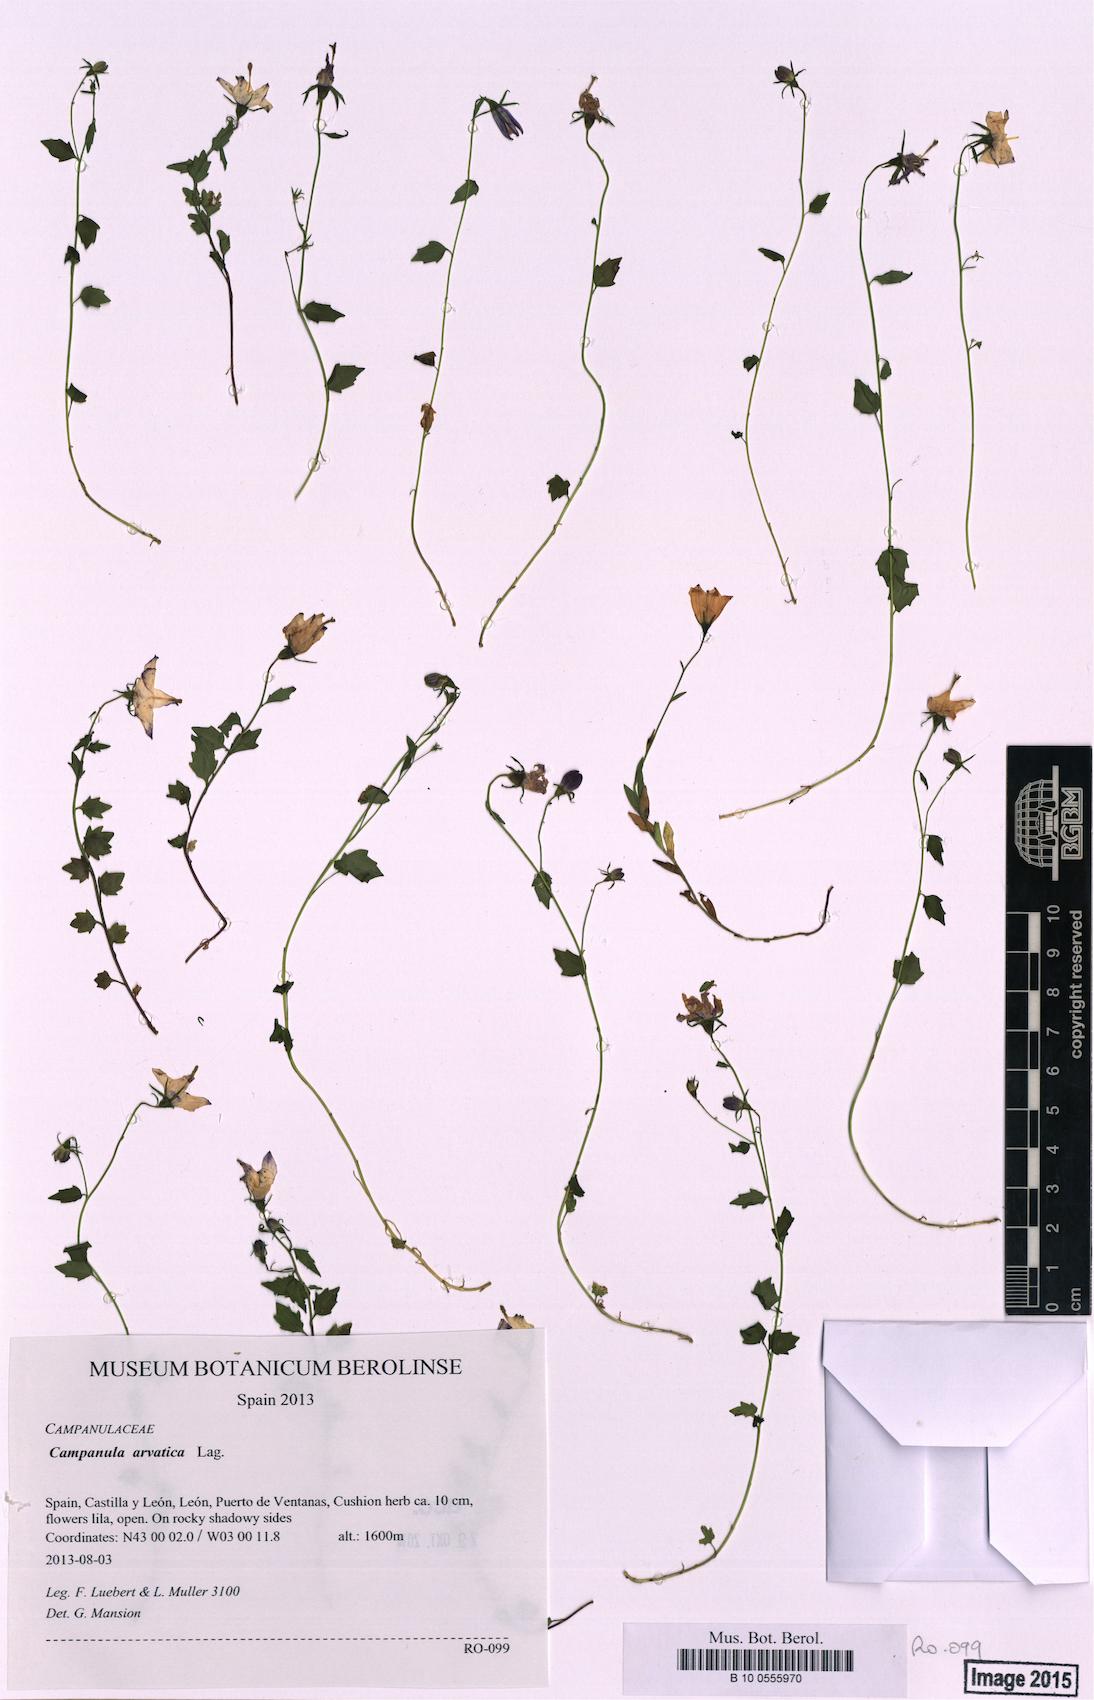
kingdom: Plantae
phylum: Tracheophyta
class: Magnoliopsida
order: Asterales
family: Campanulaceae
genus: Campanula
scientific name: Campanula arvatica
